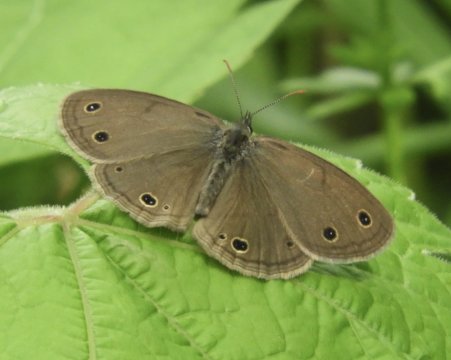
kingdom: Animalia
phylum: Arthropoda
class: Insecta
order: Lepidoptera
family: Nymphalidae
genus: Euptychia
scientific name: Euptychia cymela
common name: Little Wood Satyr
